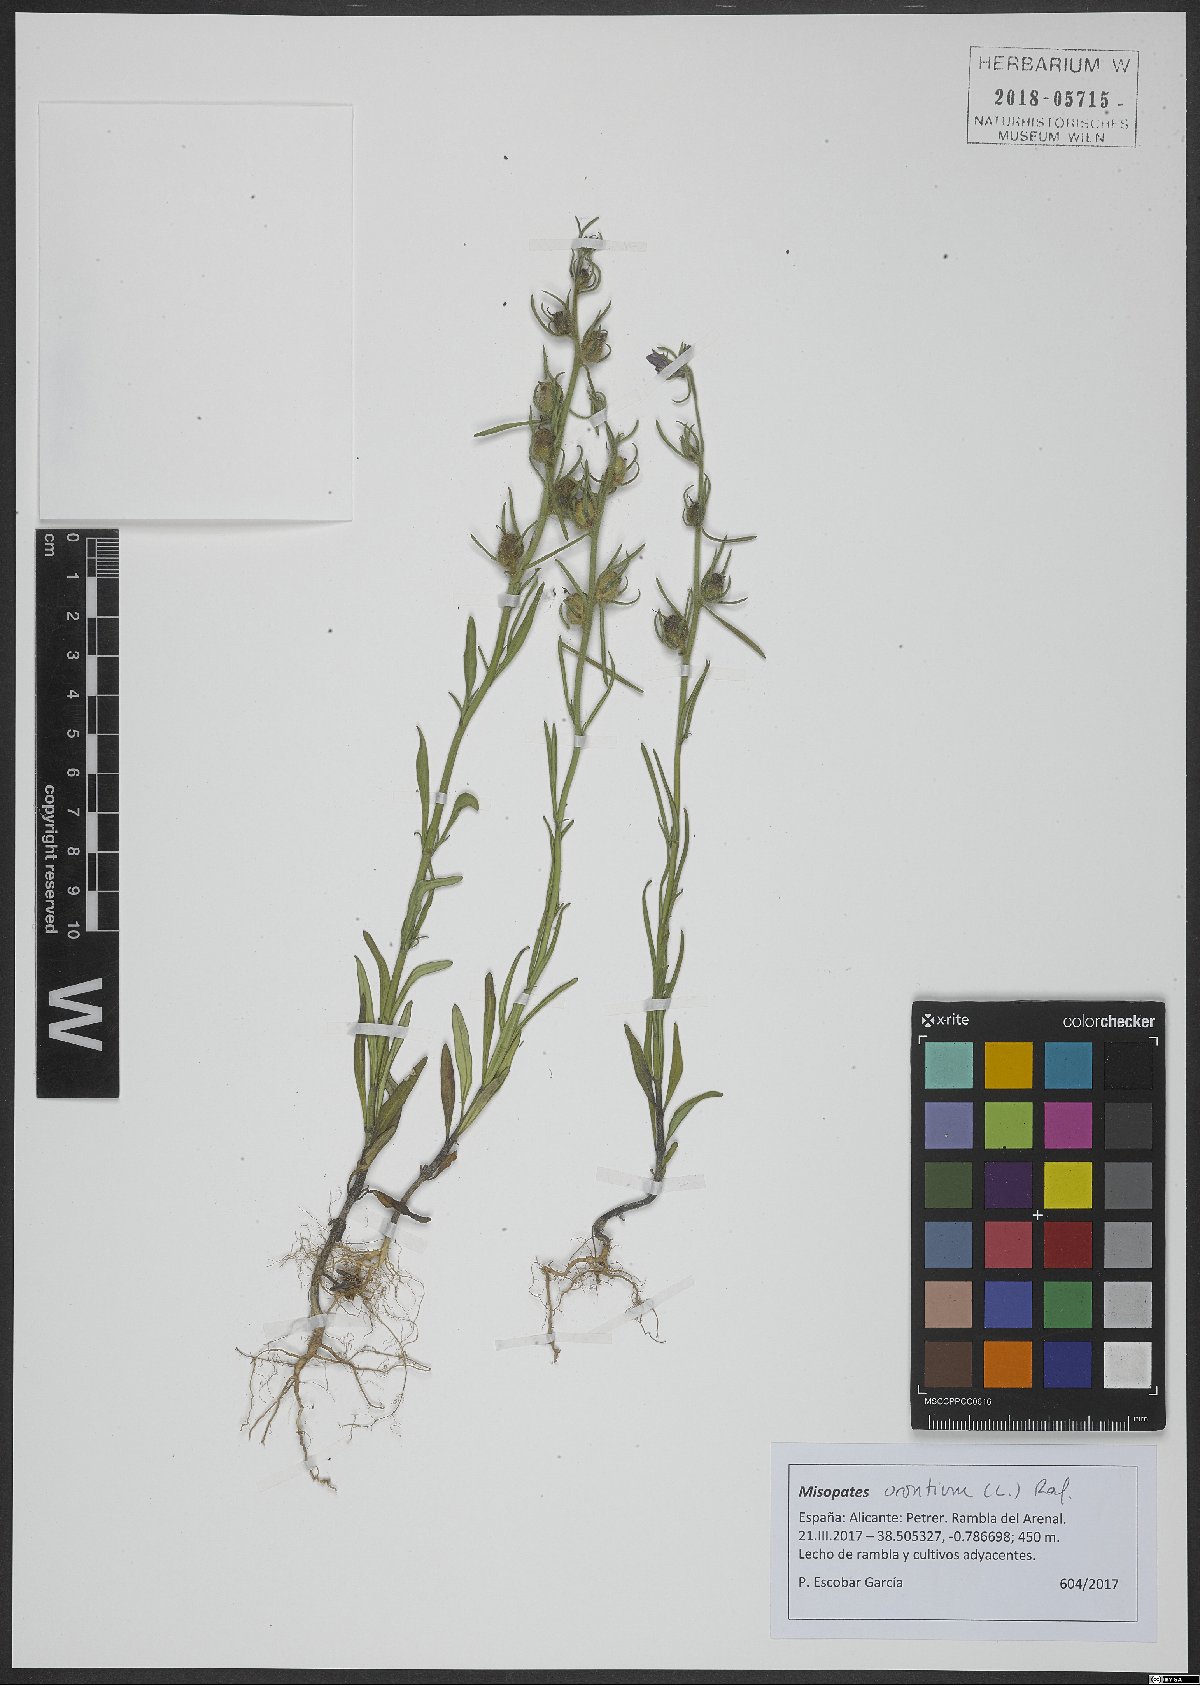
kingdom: Plantae
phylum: Tracheophyta
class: Magnoliopsida
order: Lamiales
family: Plantaginaceae
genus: Misopates
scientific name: Misopates orontium
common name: Weasel's-snout
